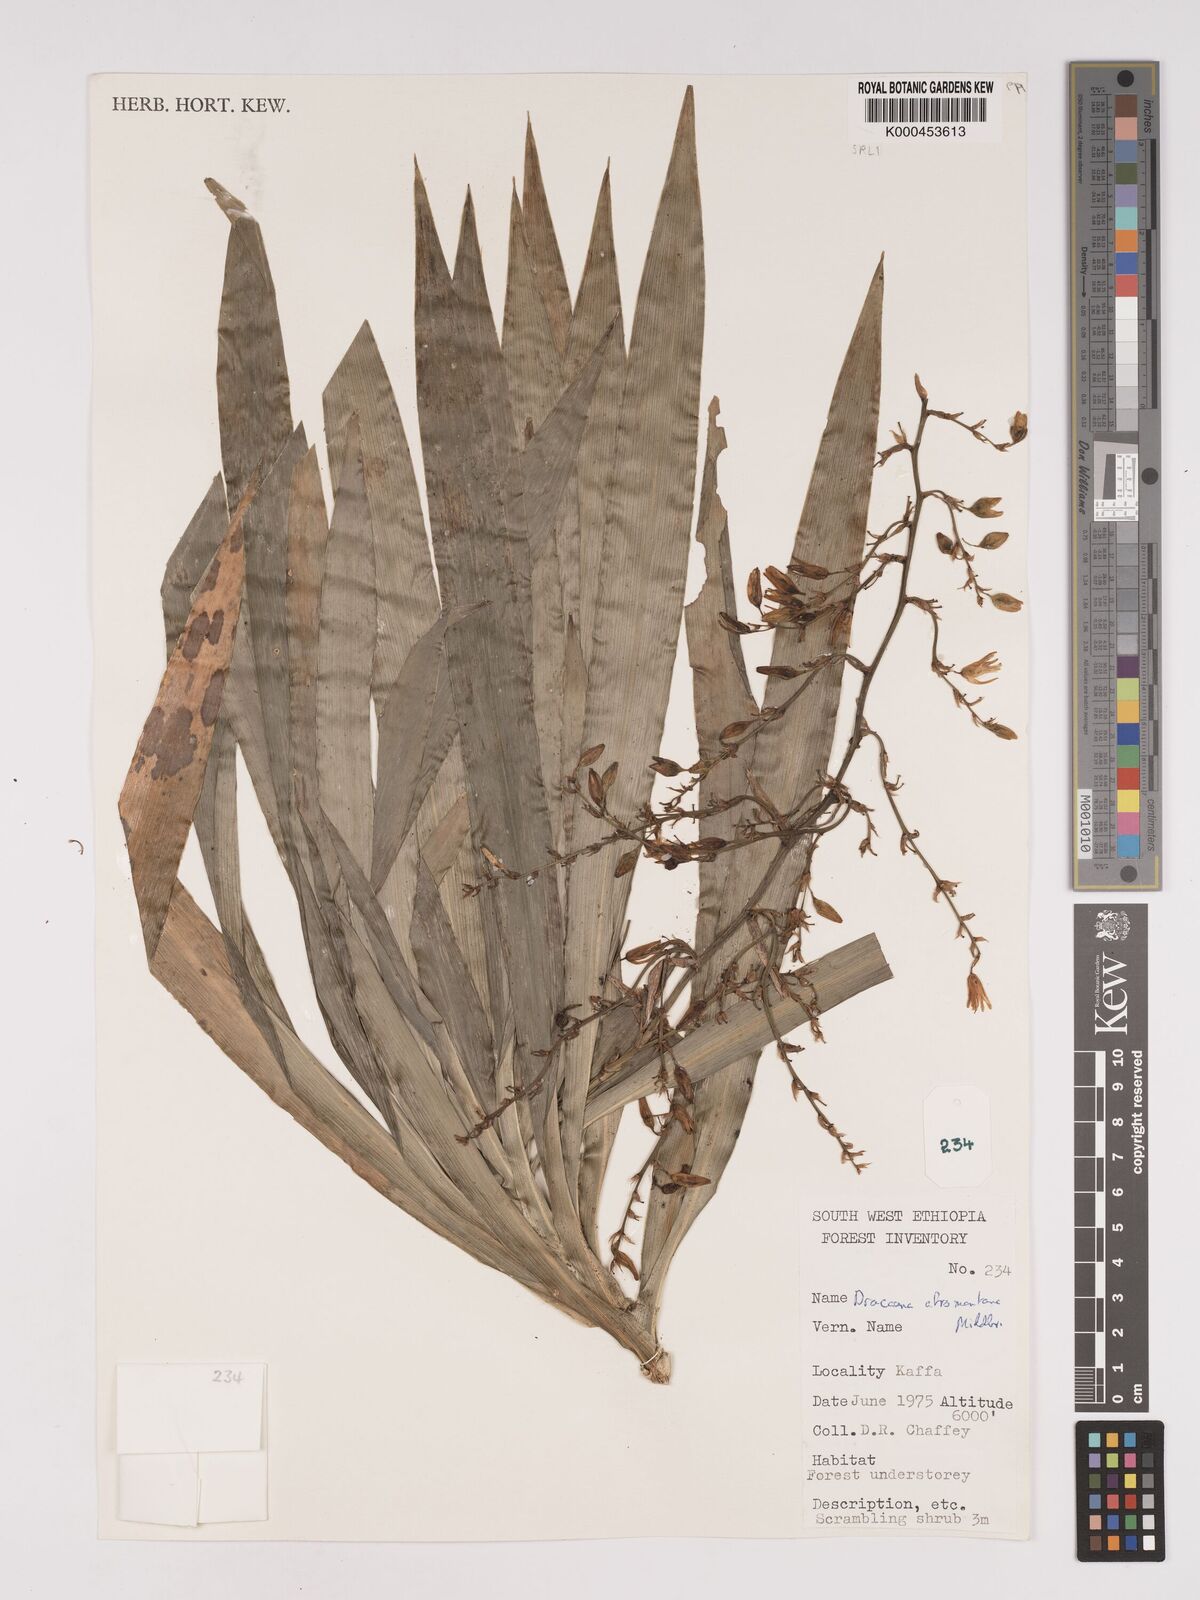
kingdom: Plantae
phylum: Tracheophyta
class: Liliopsida
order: Asparagales
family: Asparagaceae
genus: Dracaena
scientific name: Dracaena afromontana
